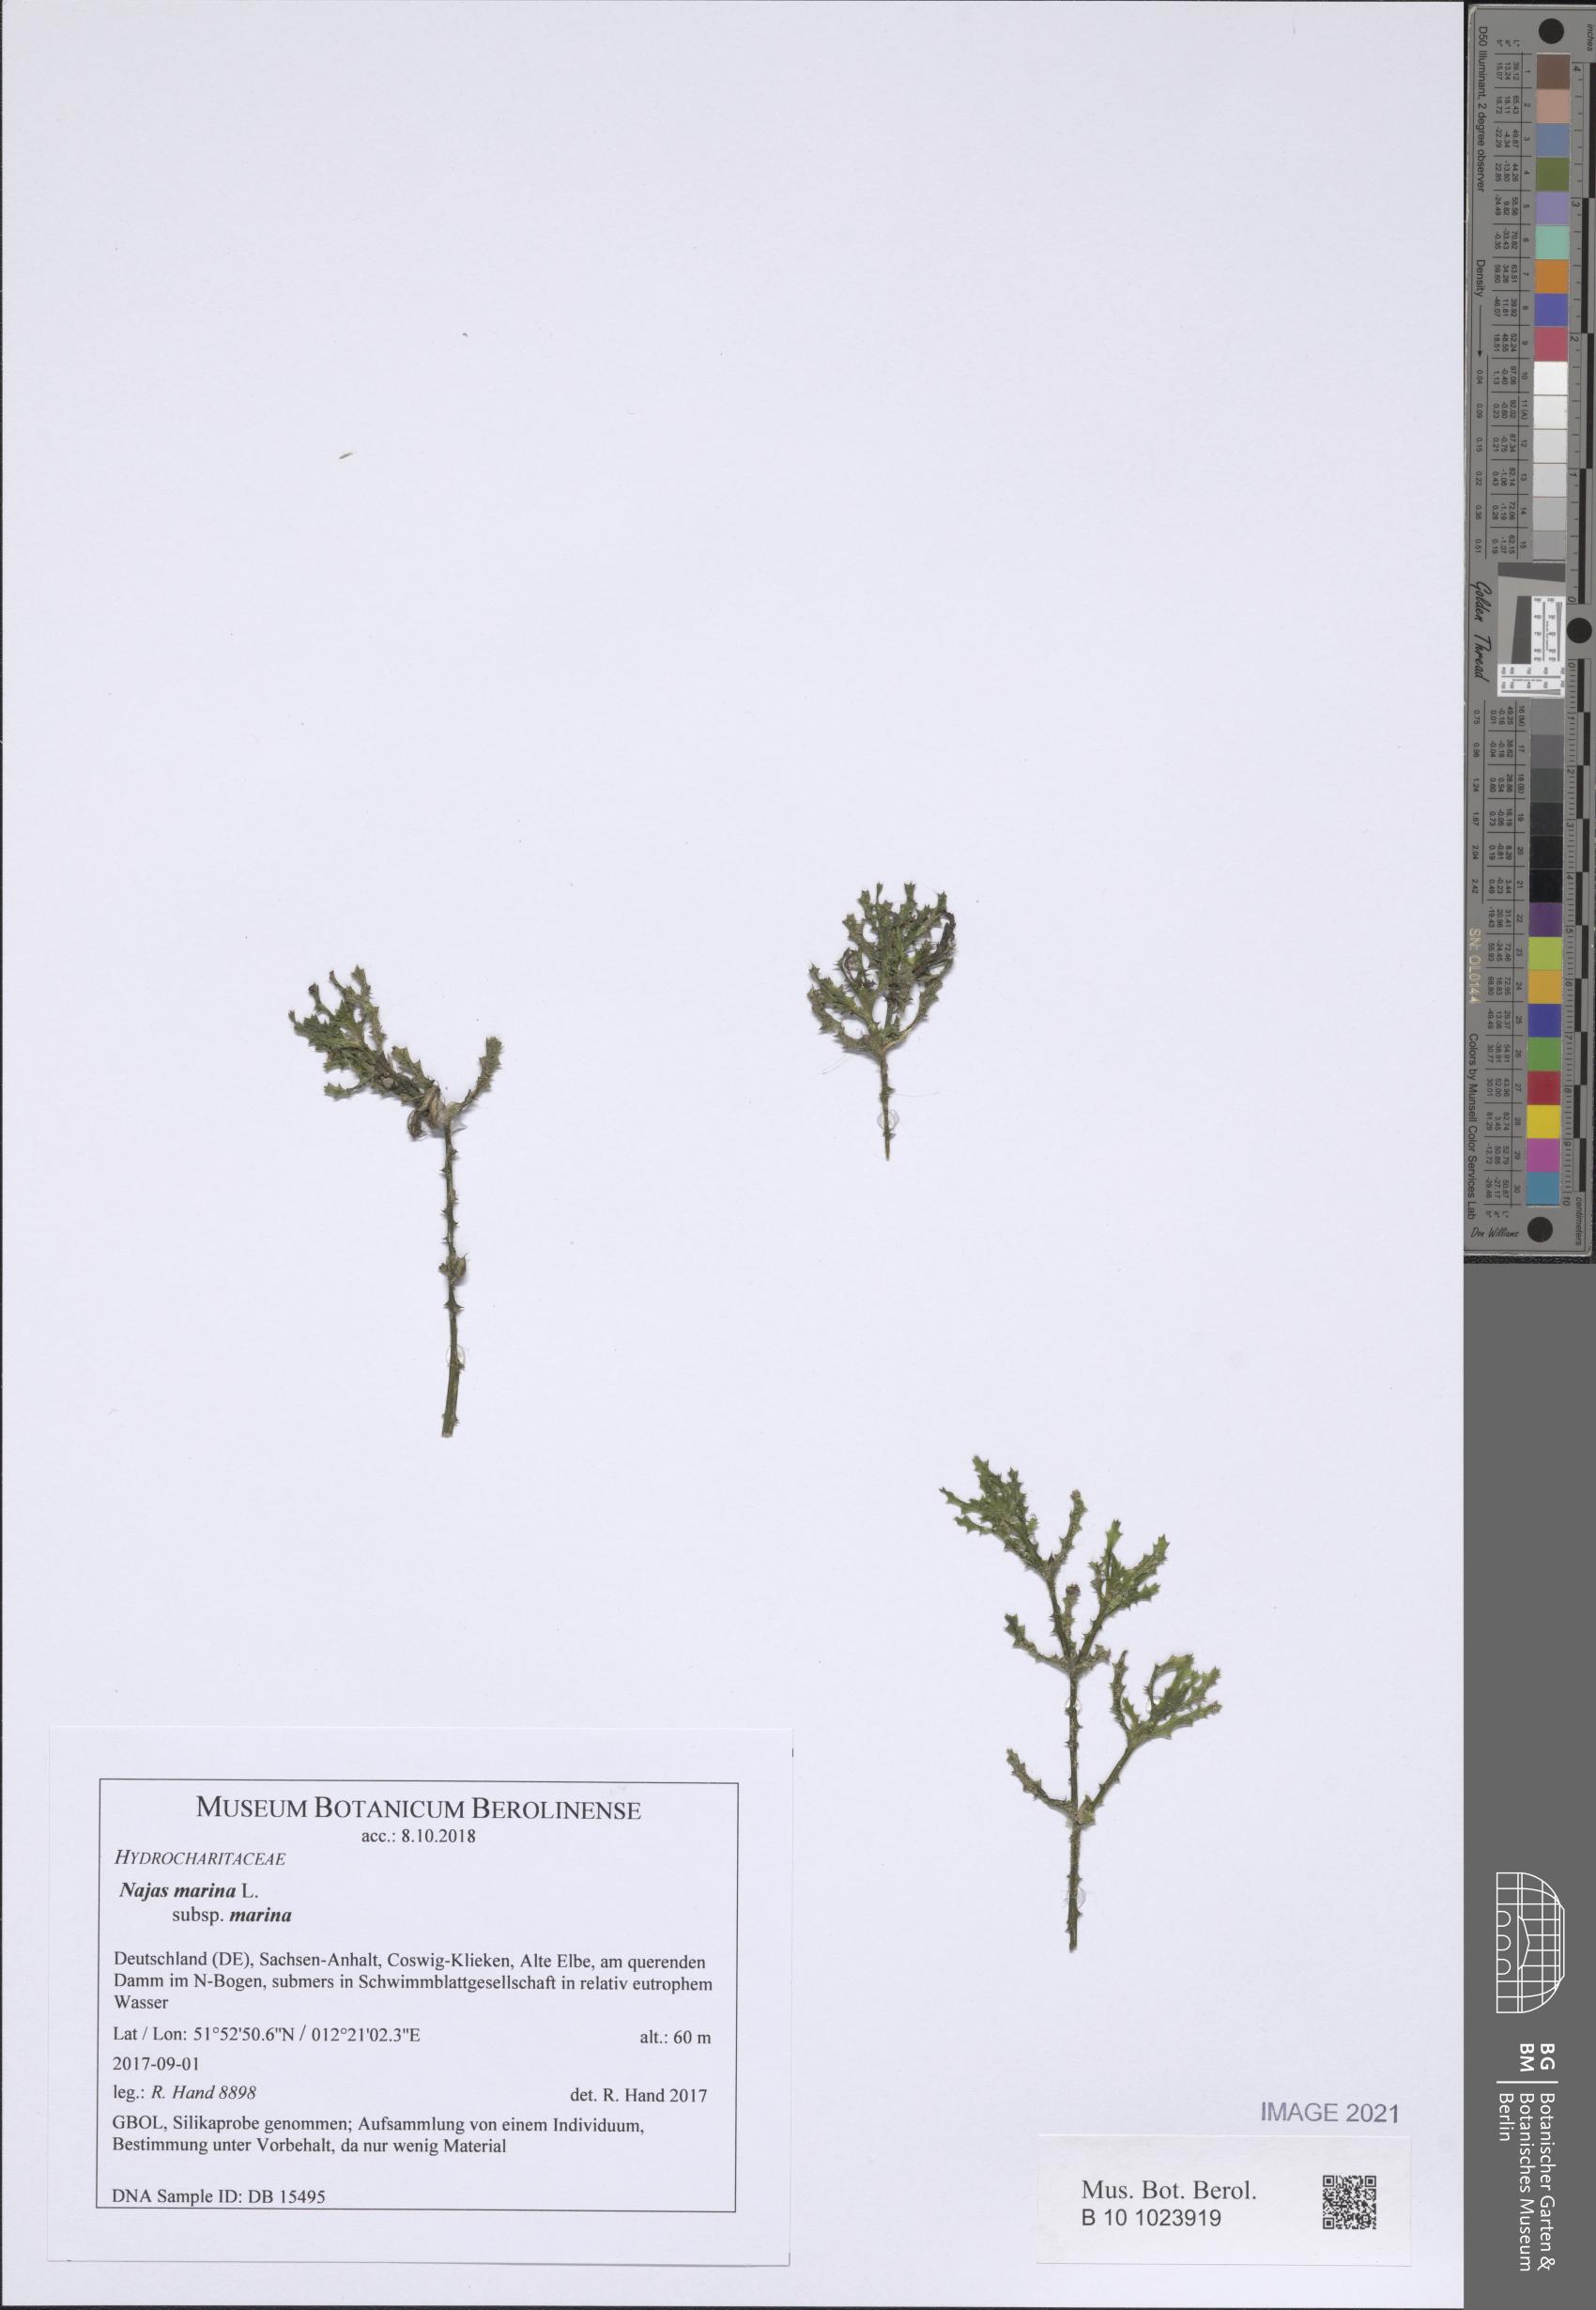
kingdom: Plantae
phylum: Tracheophyta
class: Liliopsida
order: Alismatales
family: Hydrocharitaceae
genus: Najas
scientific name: Najas marina
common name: Holly-leaved naiad
